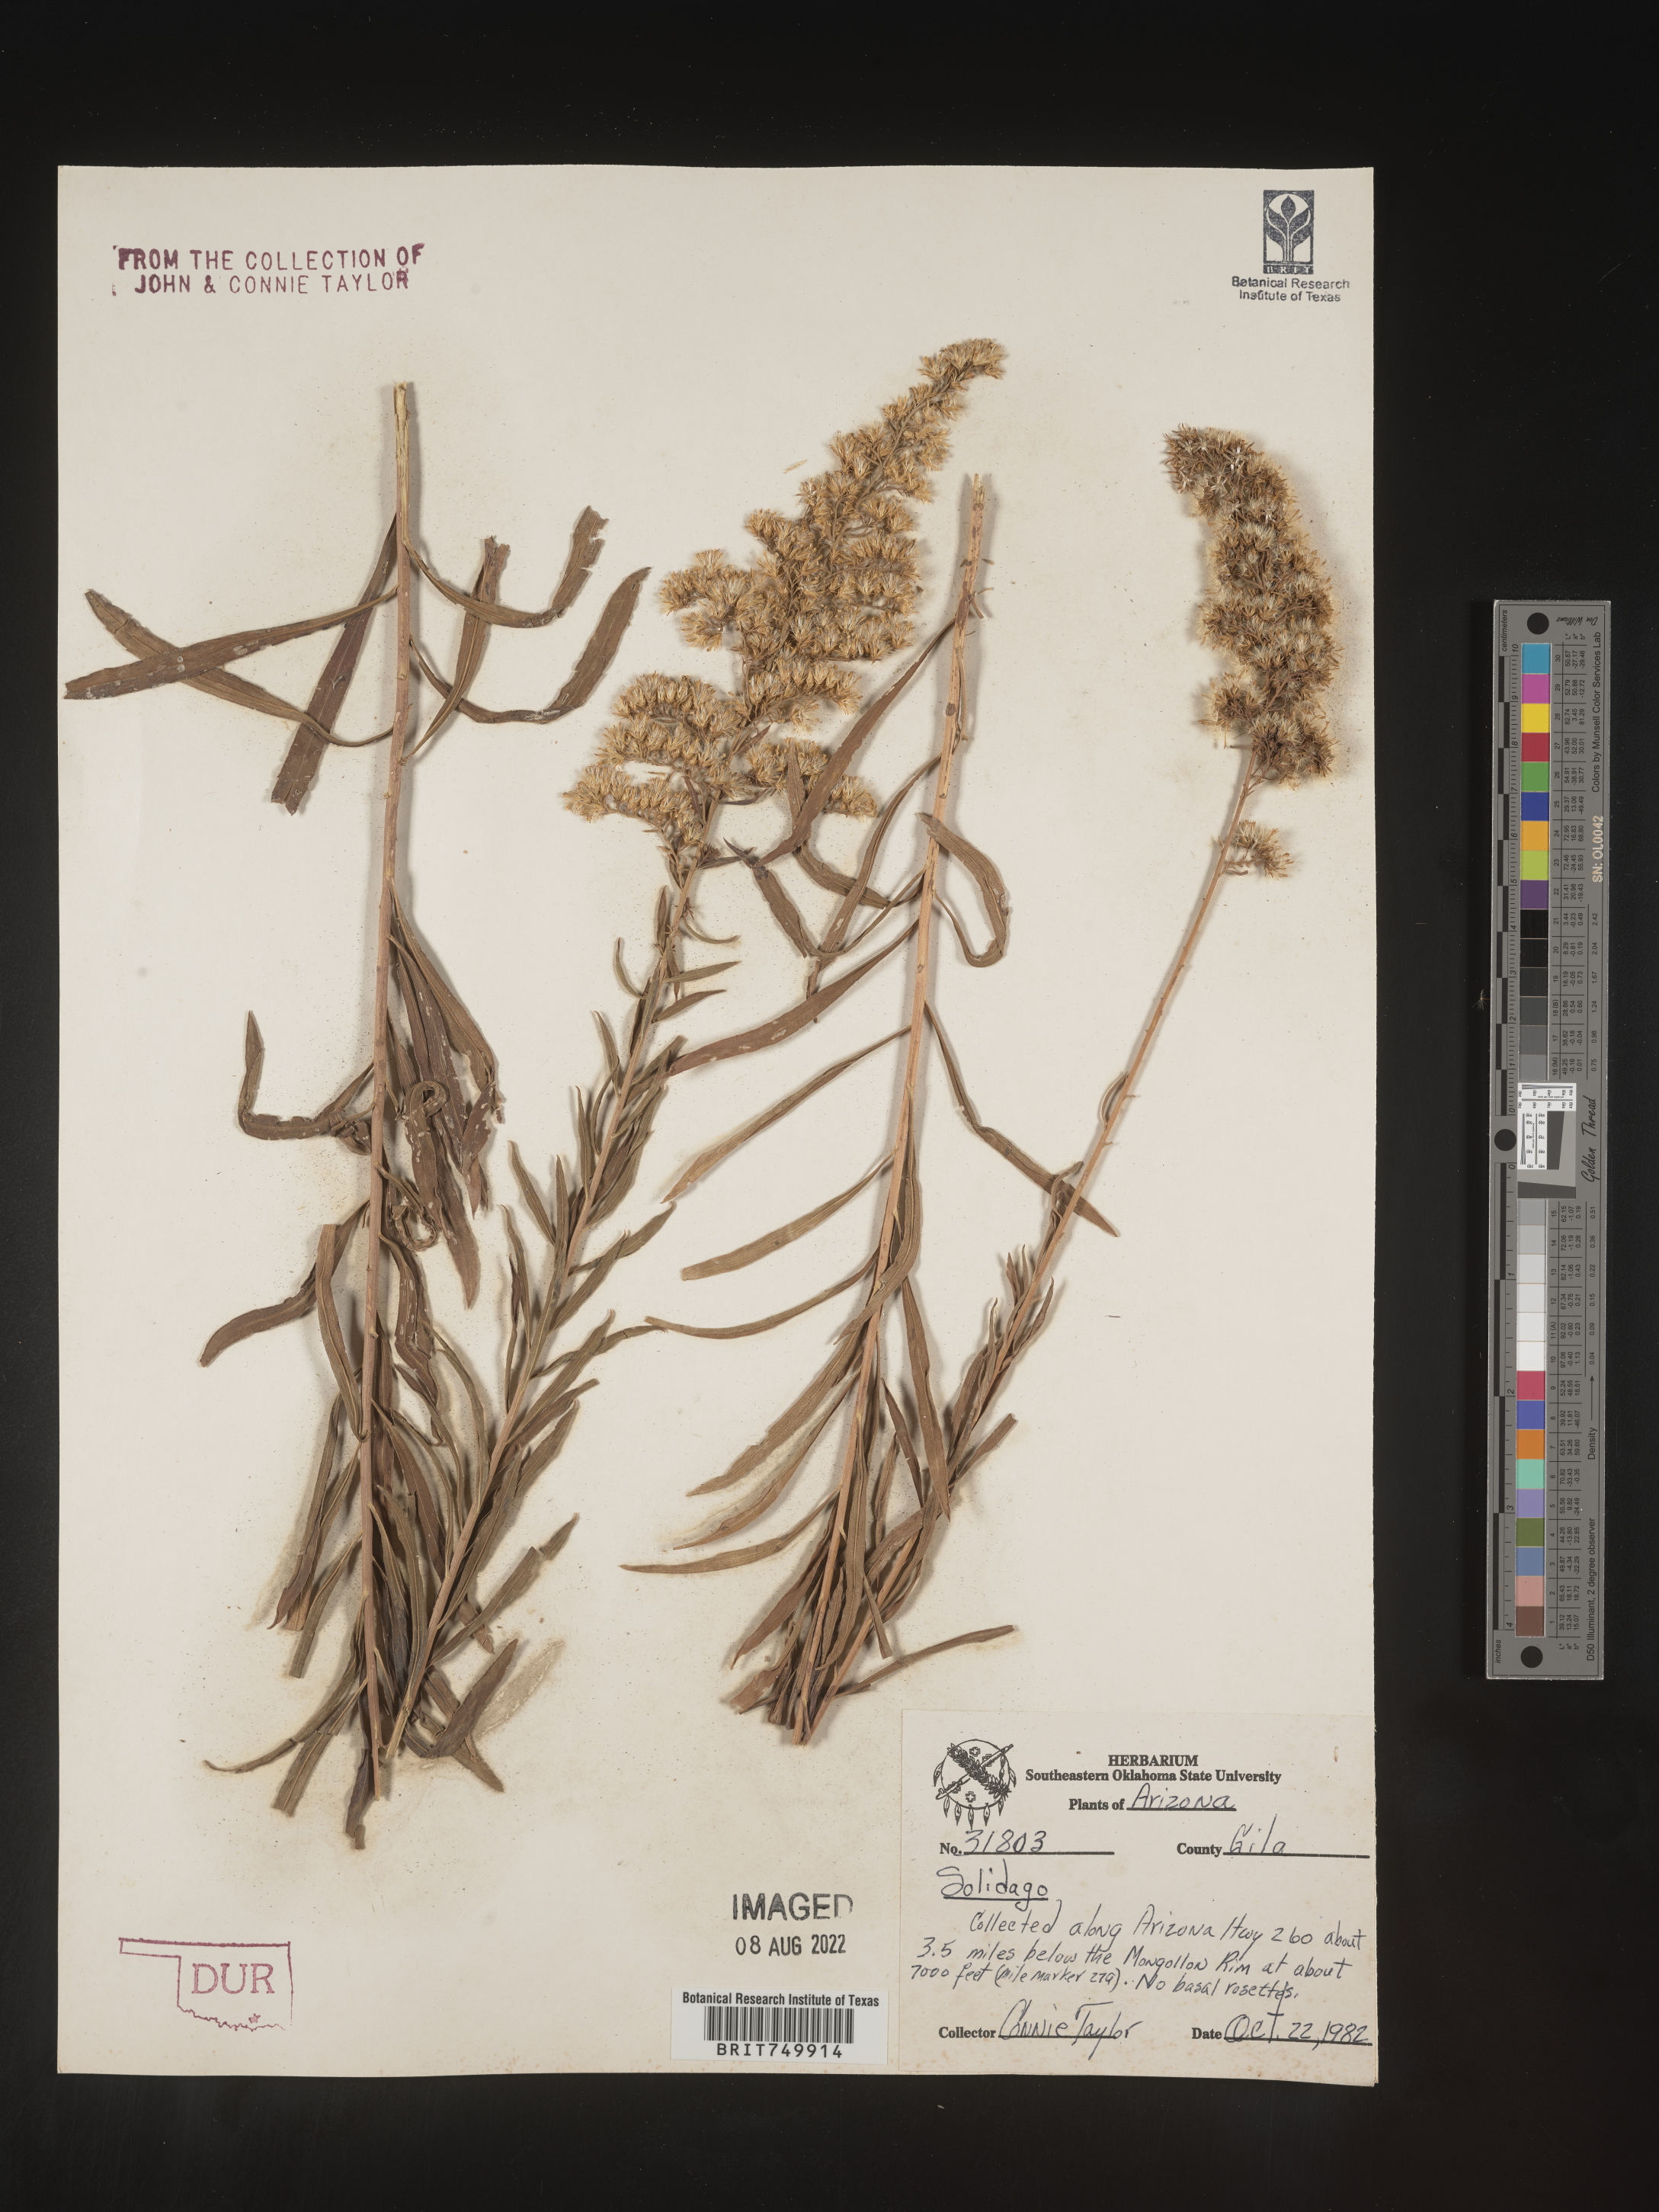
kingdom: Plantae
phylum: Tracheophyta
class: Magnoliopsida
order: Asterales
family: Asteraceae
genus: Solidago
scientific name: Solidago velutina
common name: Three-nerve goldenrod
